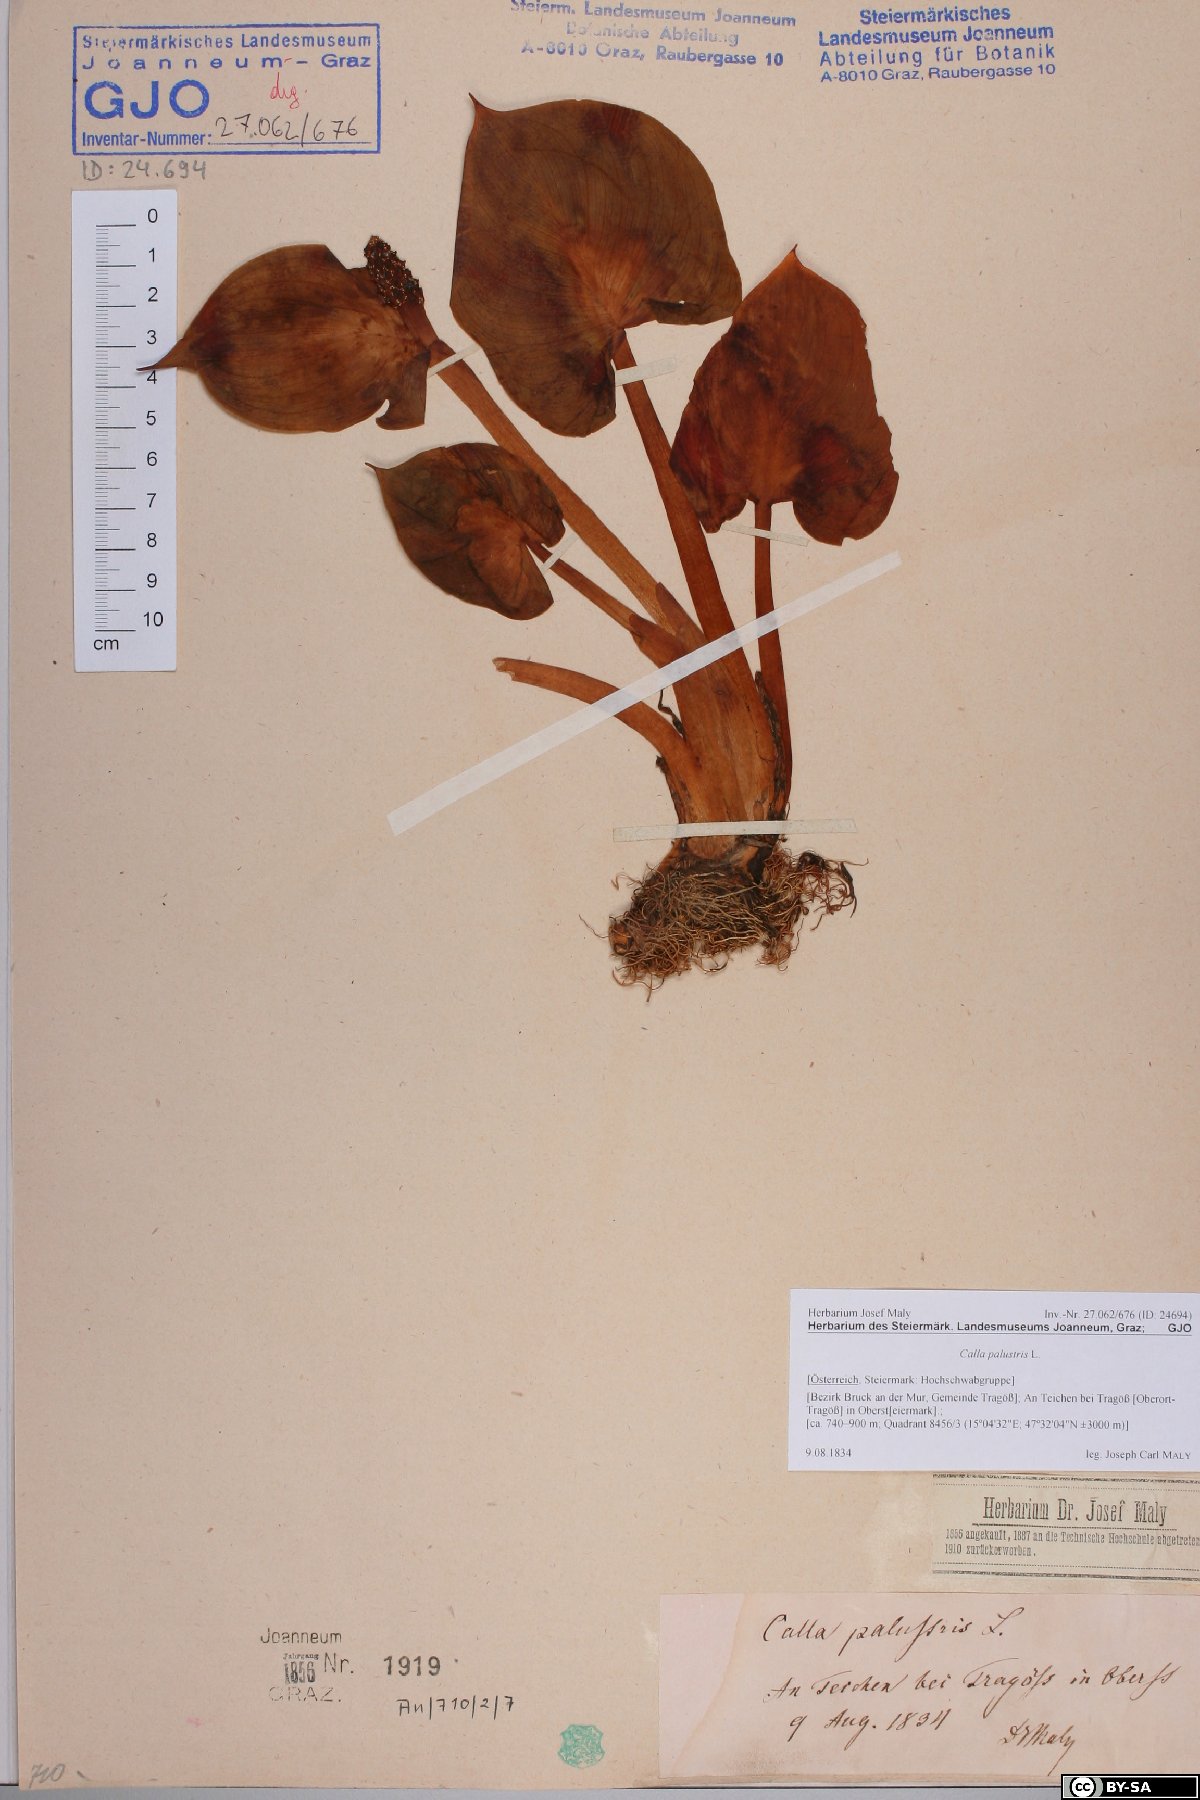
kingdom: Plantae
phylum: Tracheophyta
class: Liliopsida
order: Alismatales
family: Araceae
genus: Calla
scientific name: Calla palustris
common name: Bog arum
